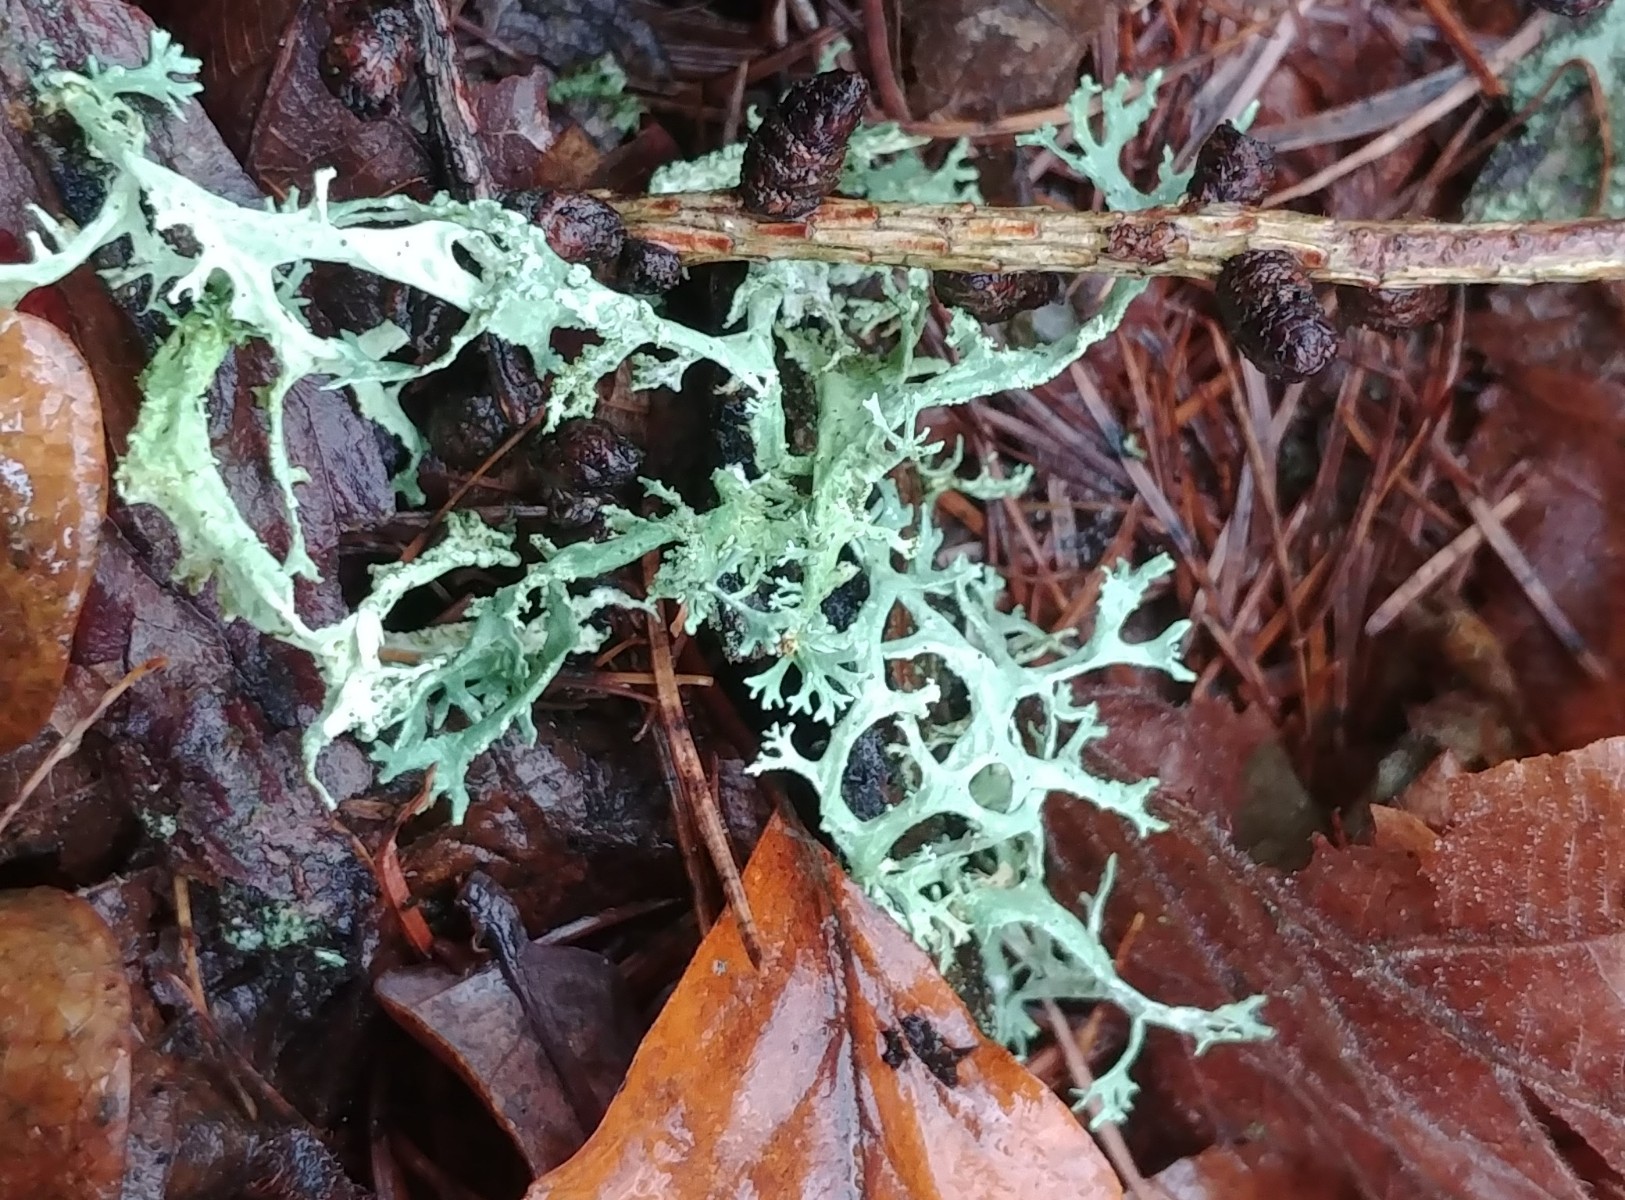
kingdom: Fungi
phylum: Ascomycota
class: Lecanoromycetes
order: Lecanorales
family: Parmeliaceae
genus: Evernia
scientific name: Evernia prunastri
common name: almindelig slåenlav
